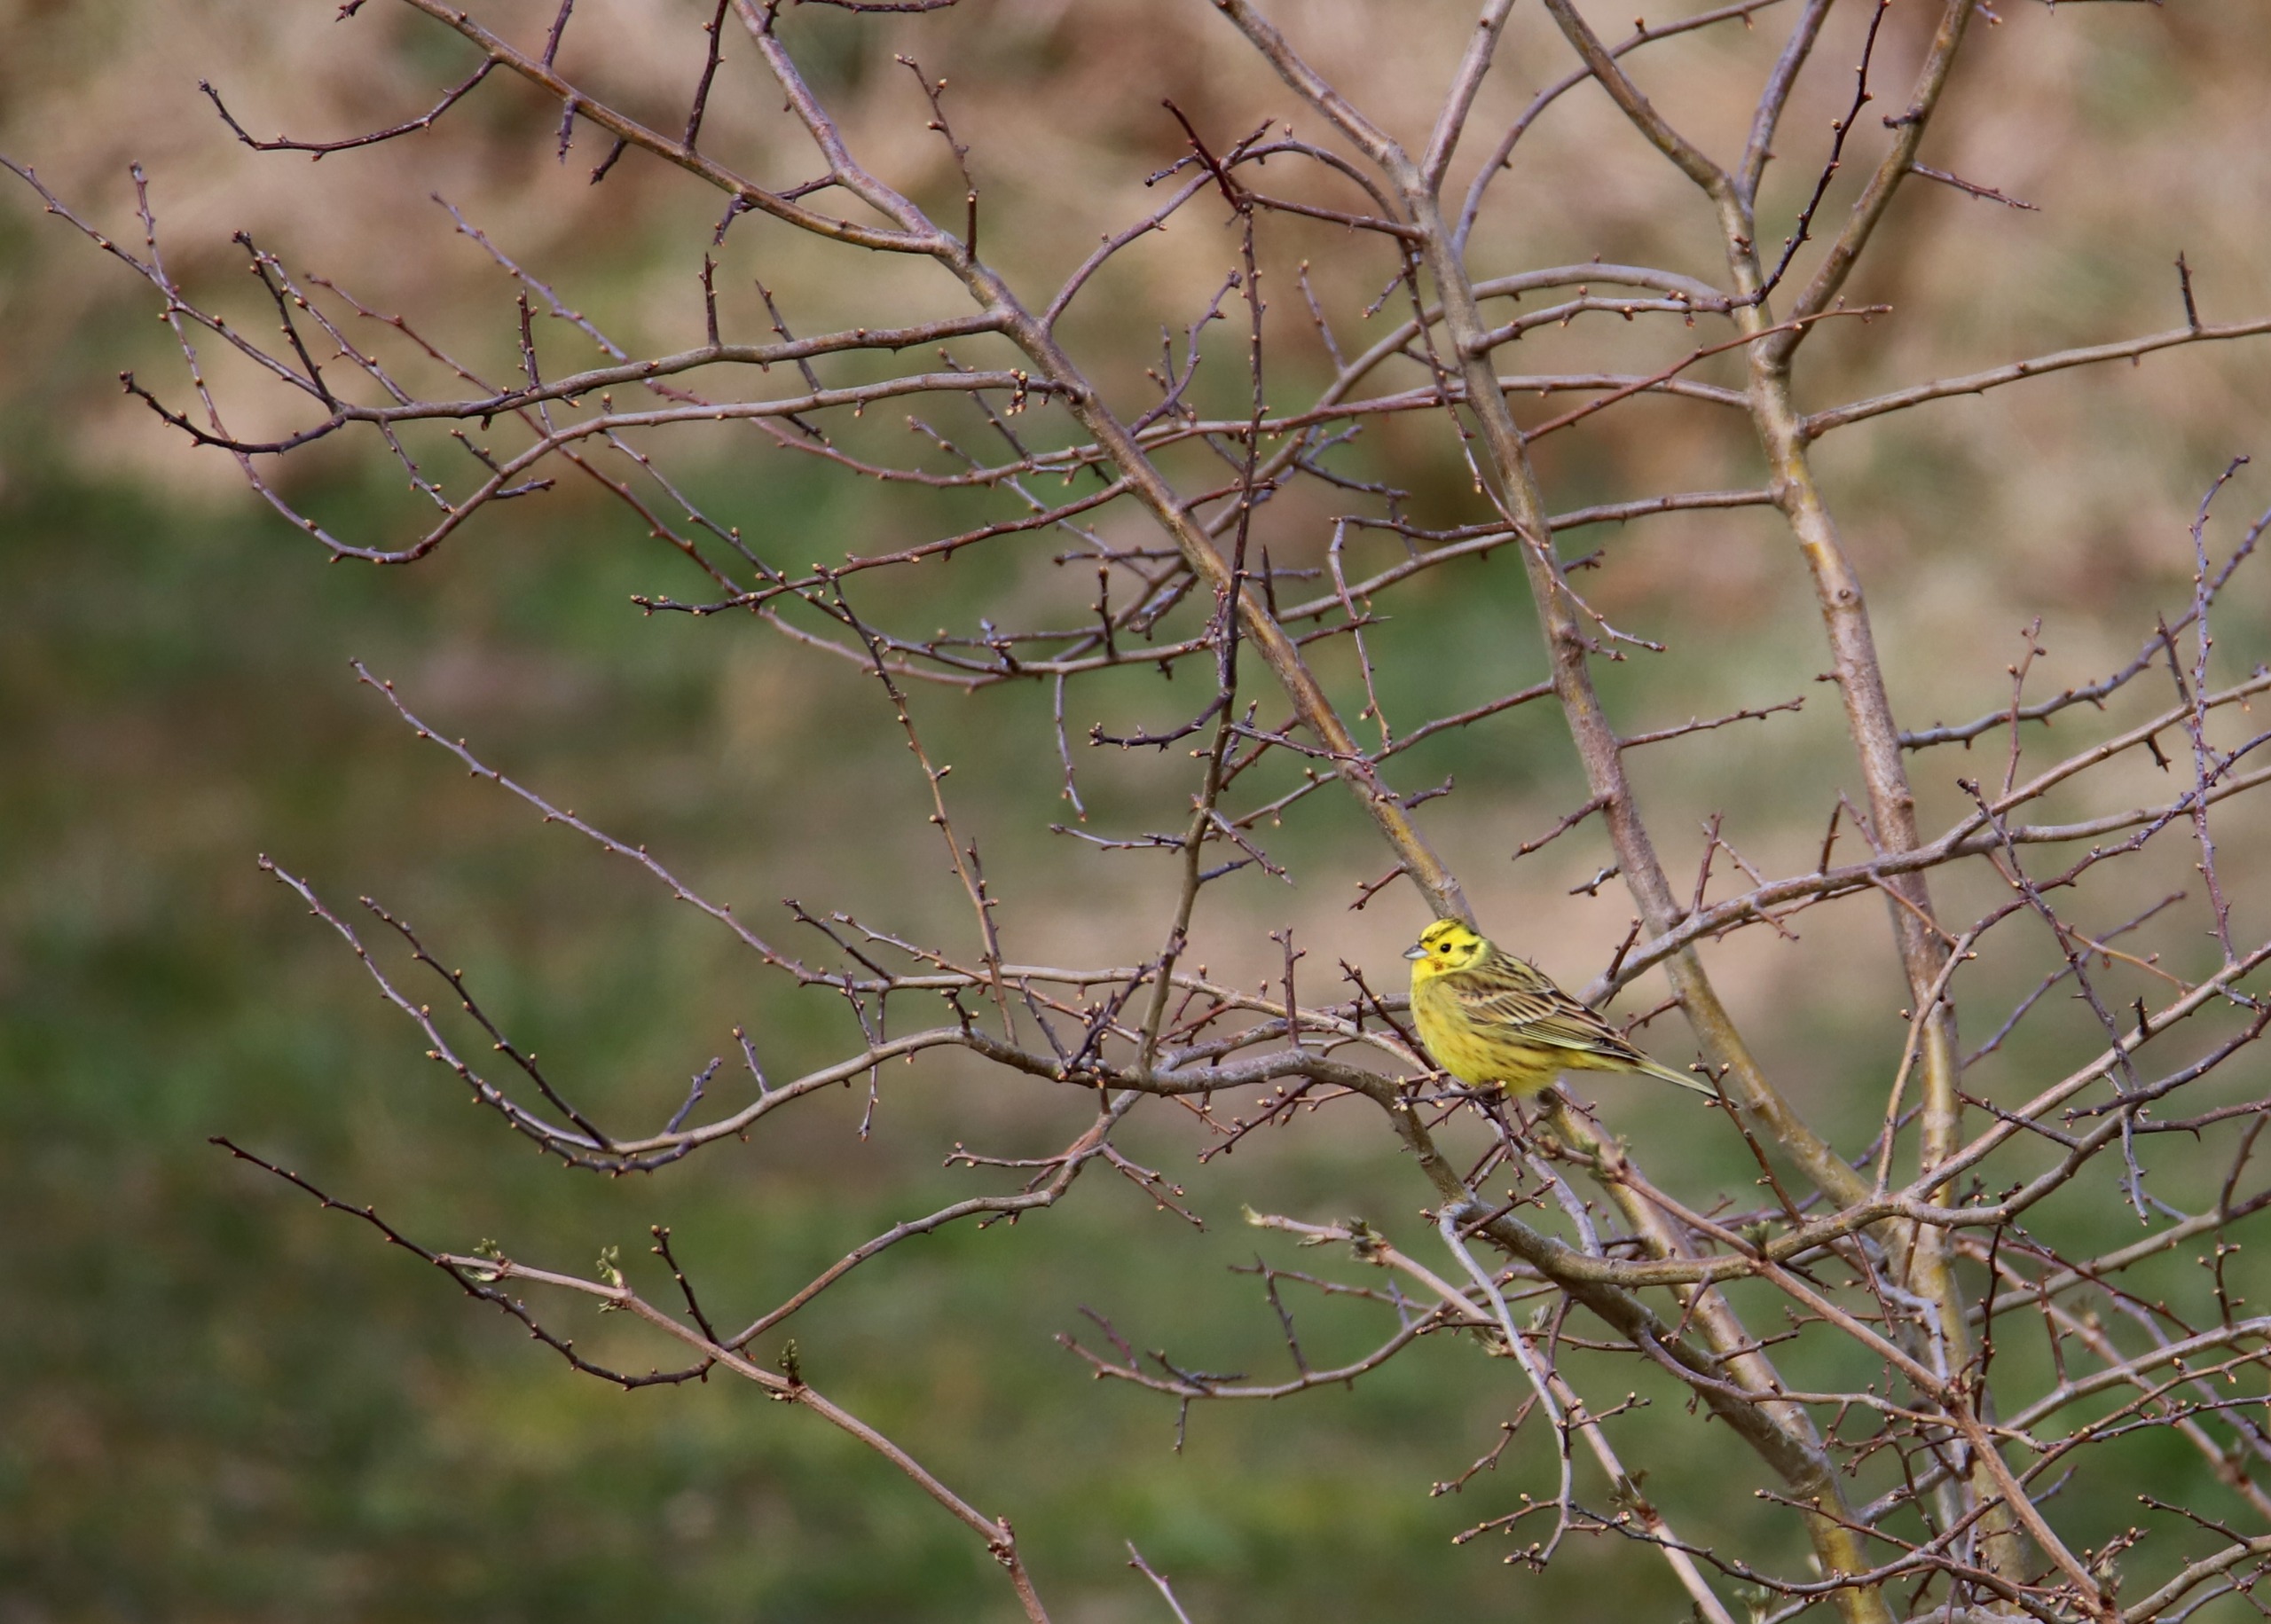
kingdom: Animalia
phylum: Chordata
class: Aves
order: Passeriformes
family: Emberizidae
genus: Emberiza
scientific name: Emberiza citrinella
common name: Gulspurv
